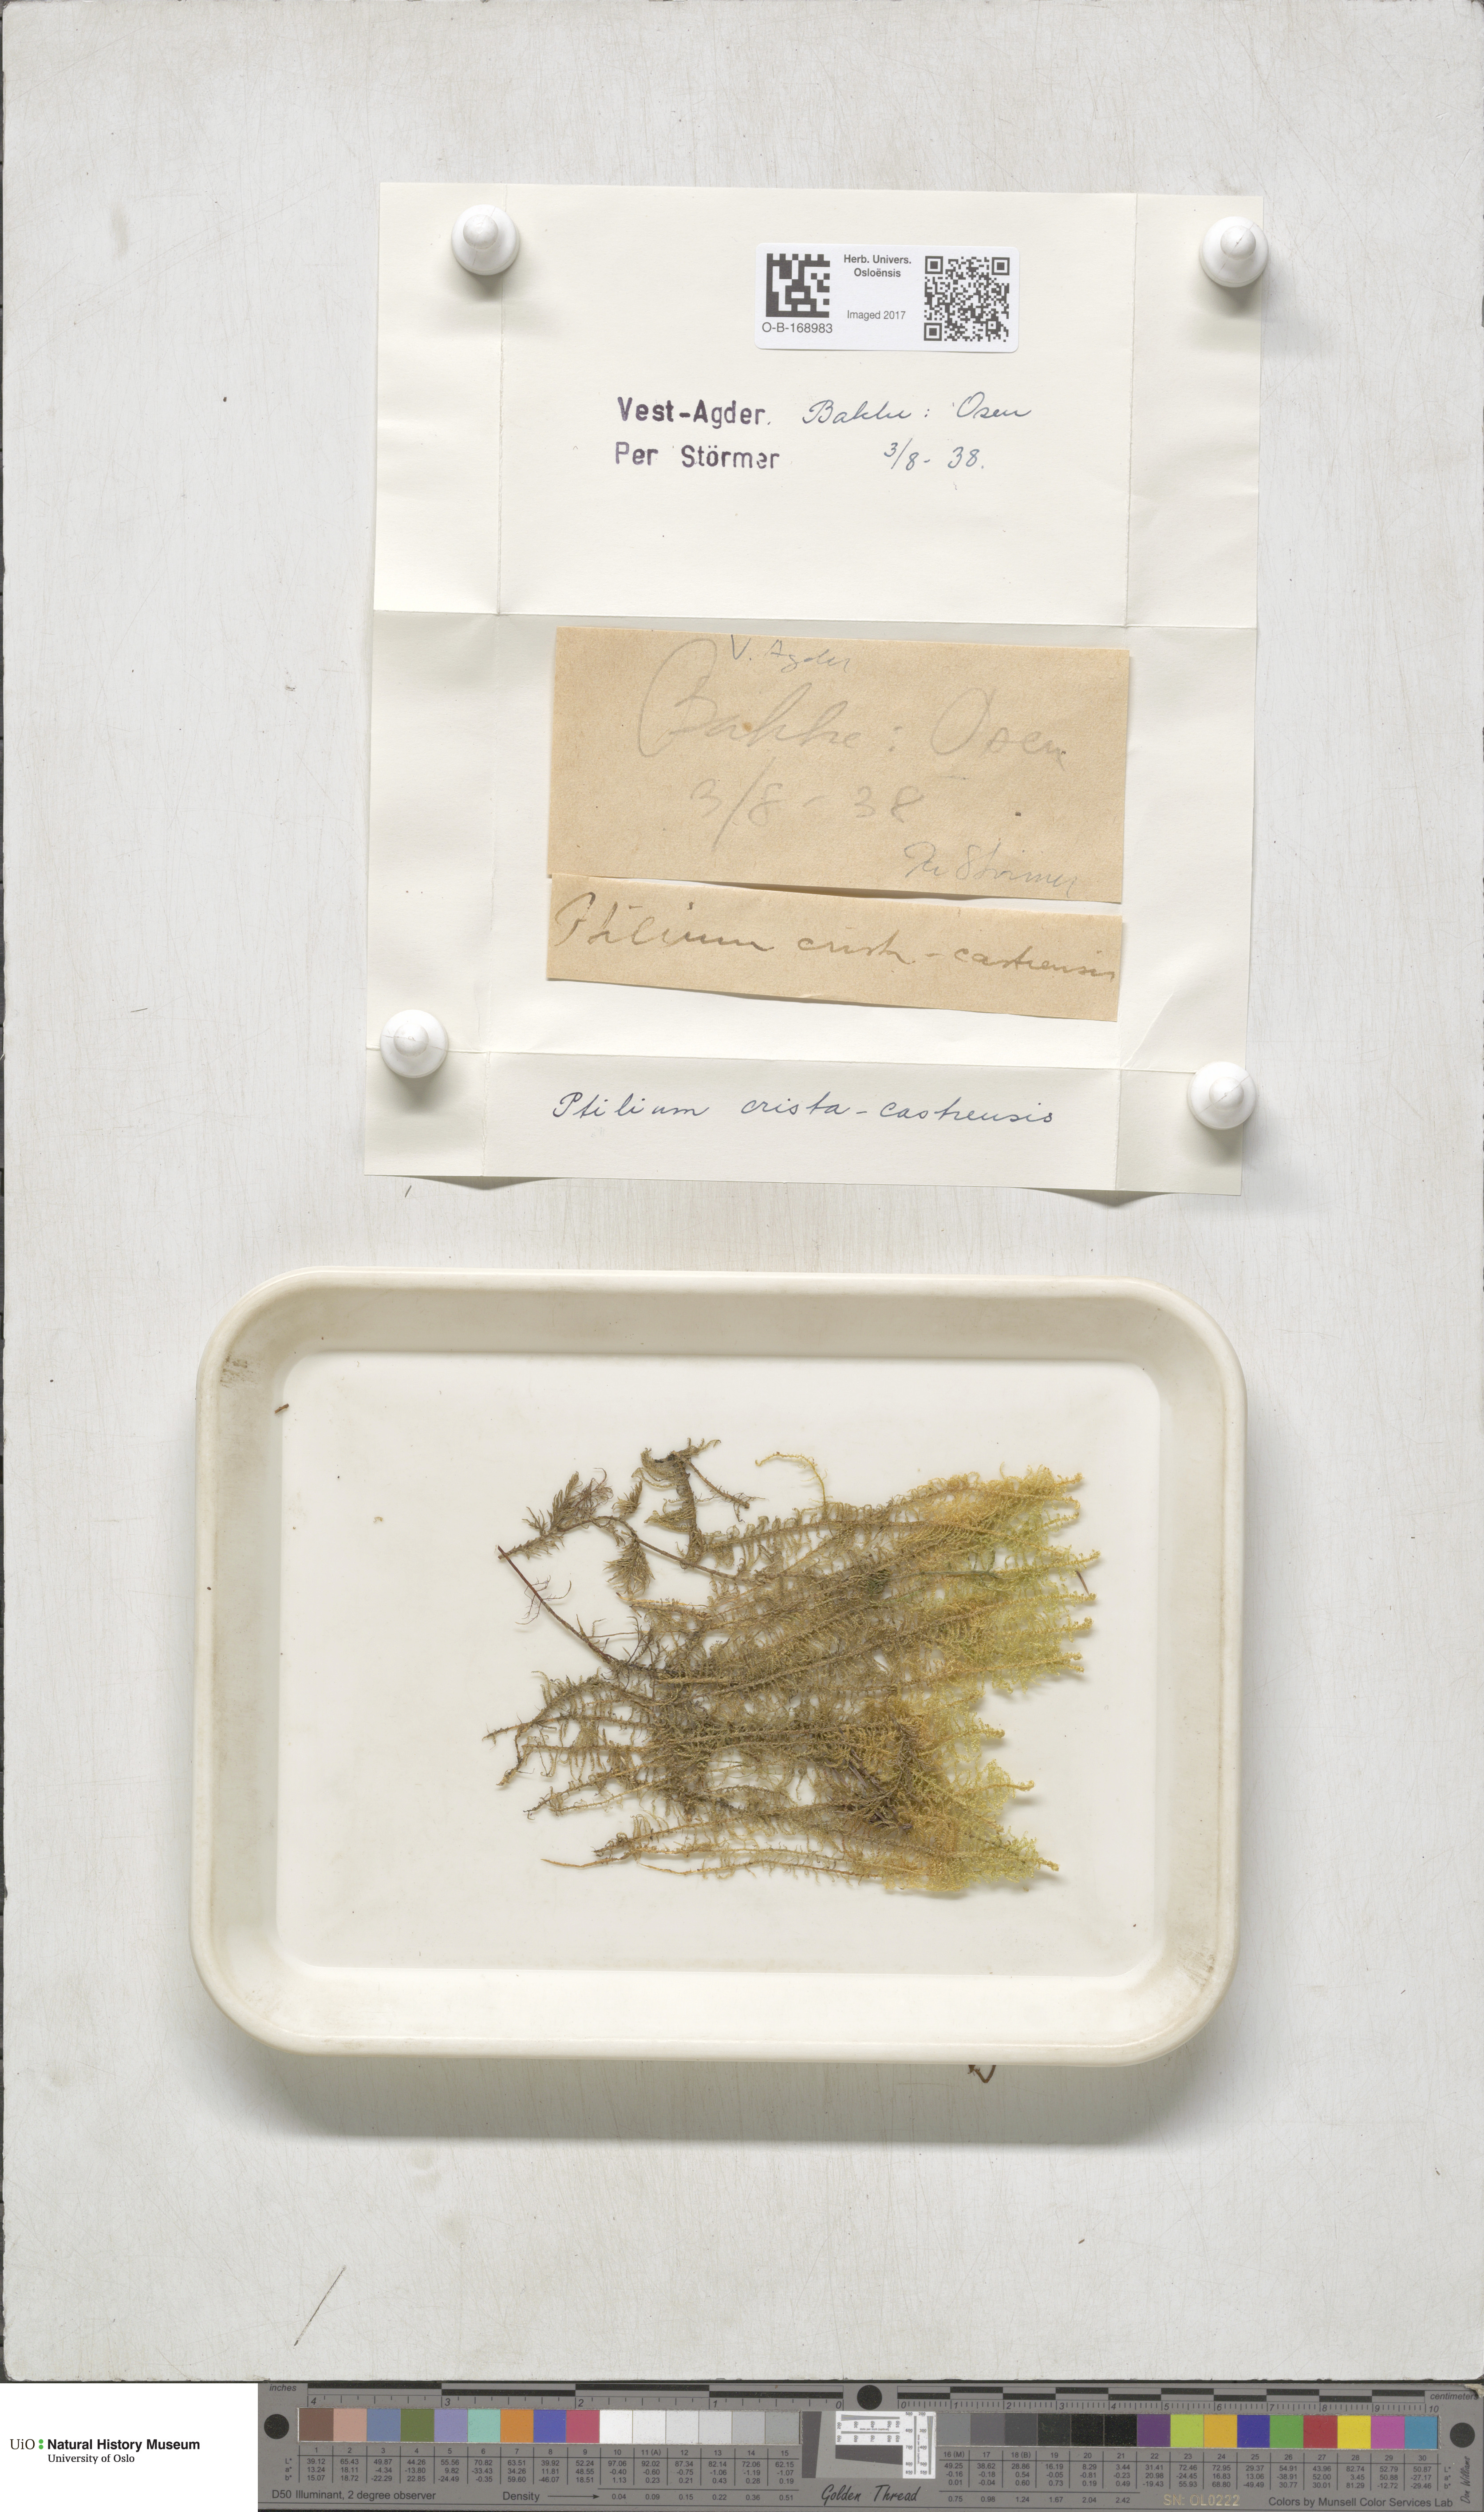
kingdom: Plantae
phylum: Bryophyta
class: Bryopsida
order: Hypnales
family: Pylaisiaceae
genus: Ptilium
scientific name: Ptilium crista-castrensis
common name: Knight's plume moss
